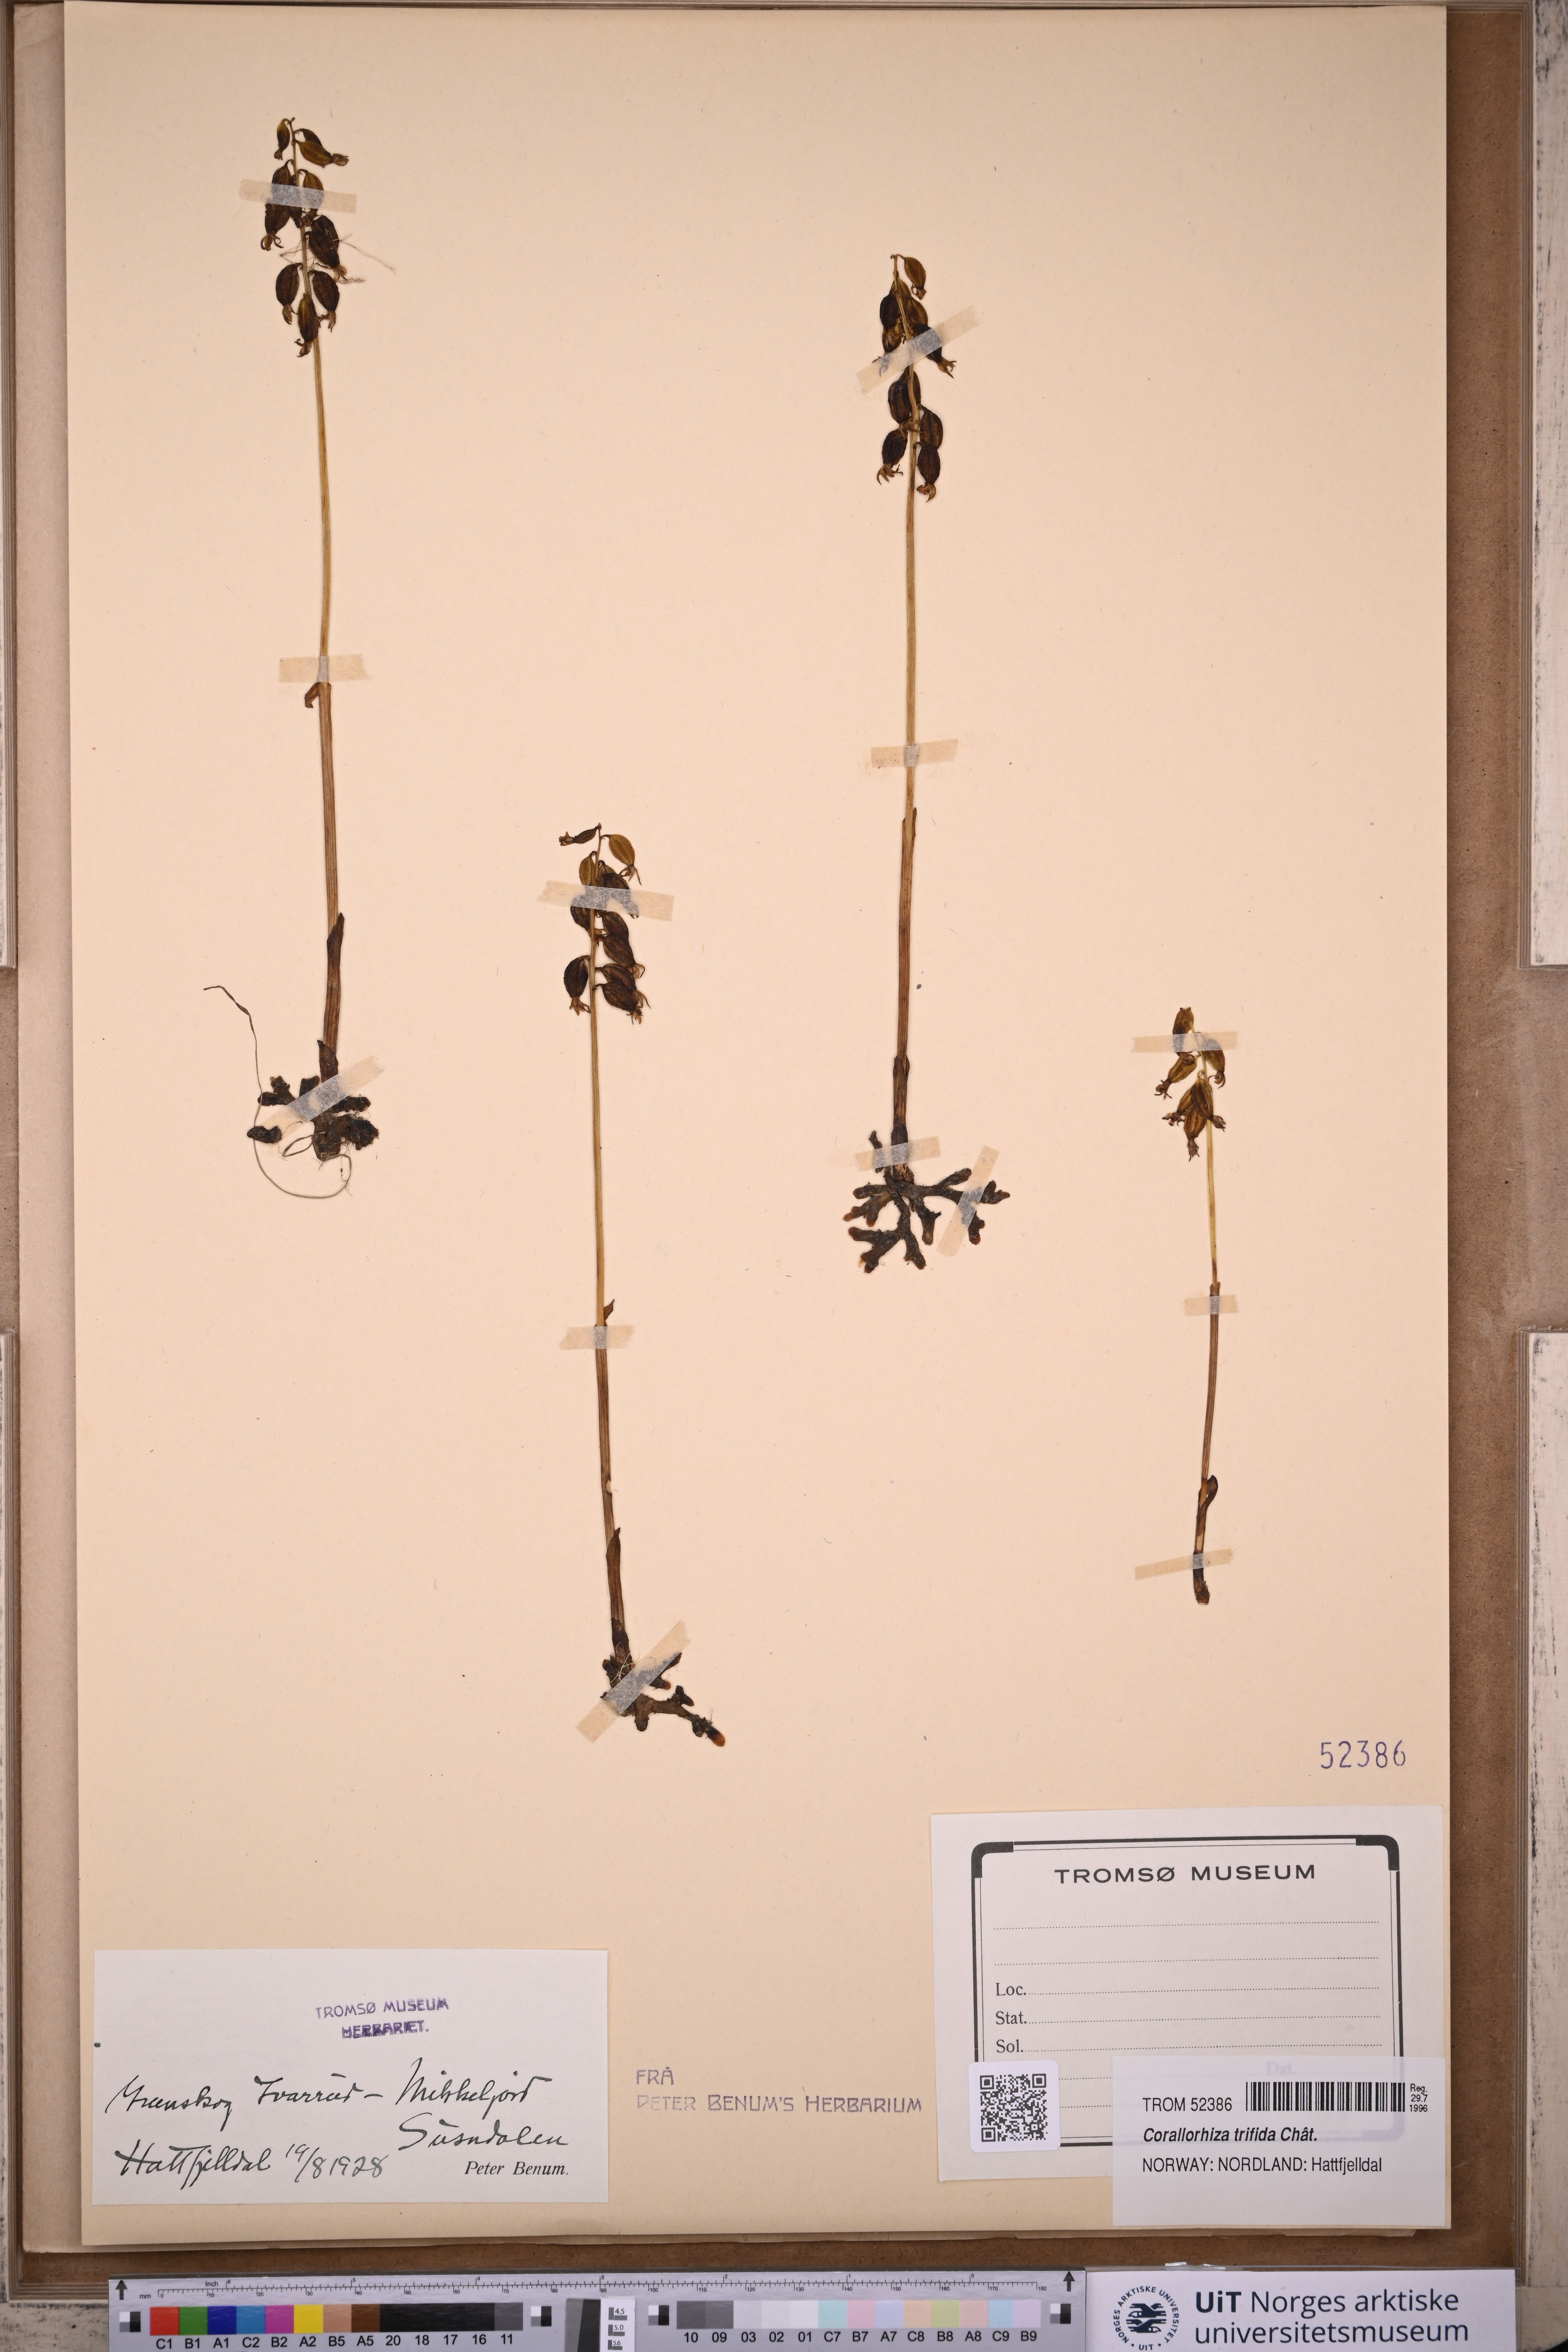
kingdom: Plantae
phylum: Tracheophyta
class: Liliopsida
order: Asparagales
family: Orchidaceae
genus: Corallorhiza
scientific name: Corallorhiza trifida
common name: Yellow coralroot
